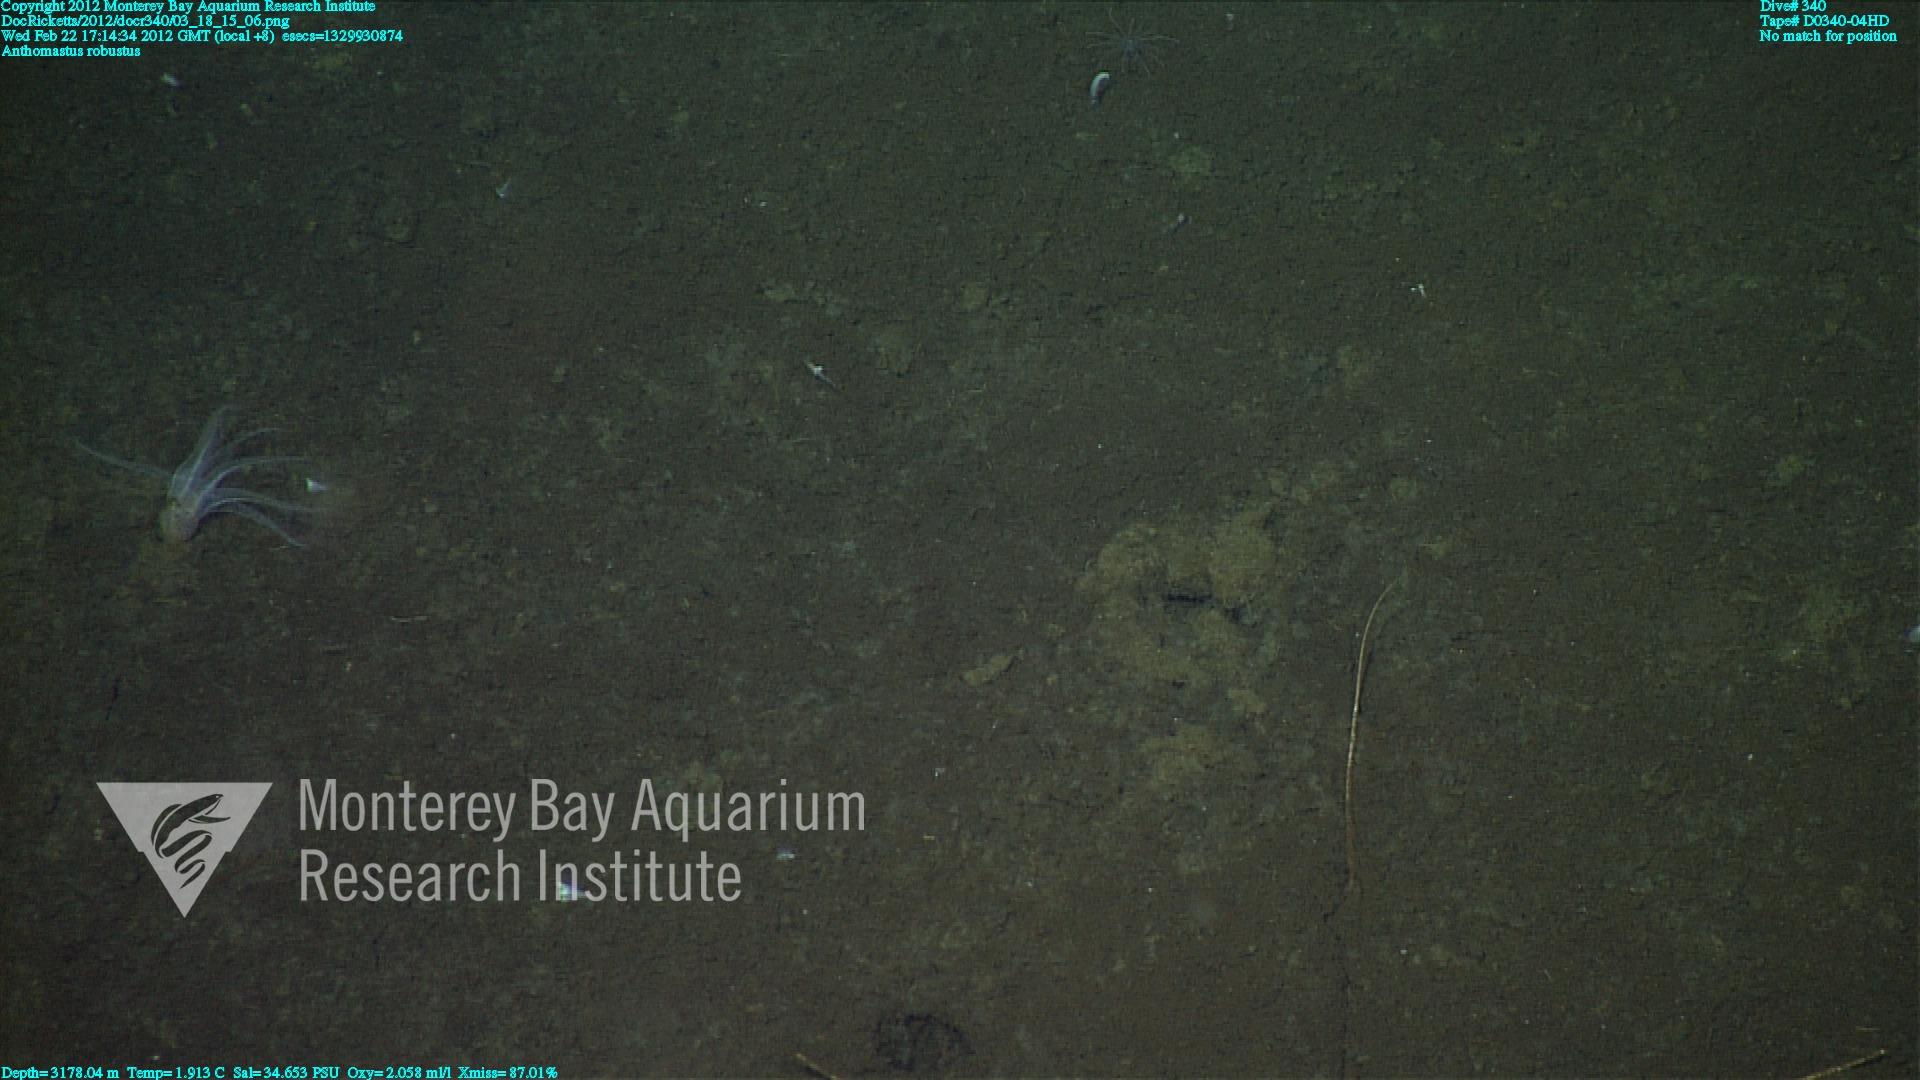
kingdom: Animalia
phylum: Cnidaria
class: Anthozoa
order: Scleralcyonacea
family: Coralliidae
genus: Bathyalcyon
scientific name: Bathyalcyon robustum
